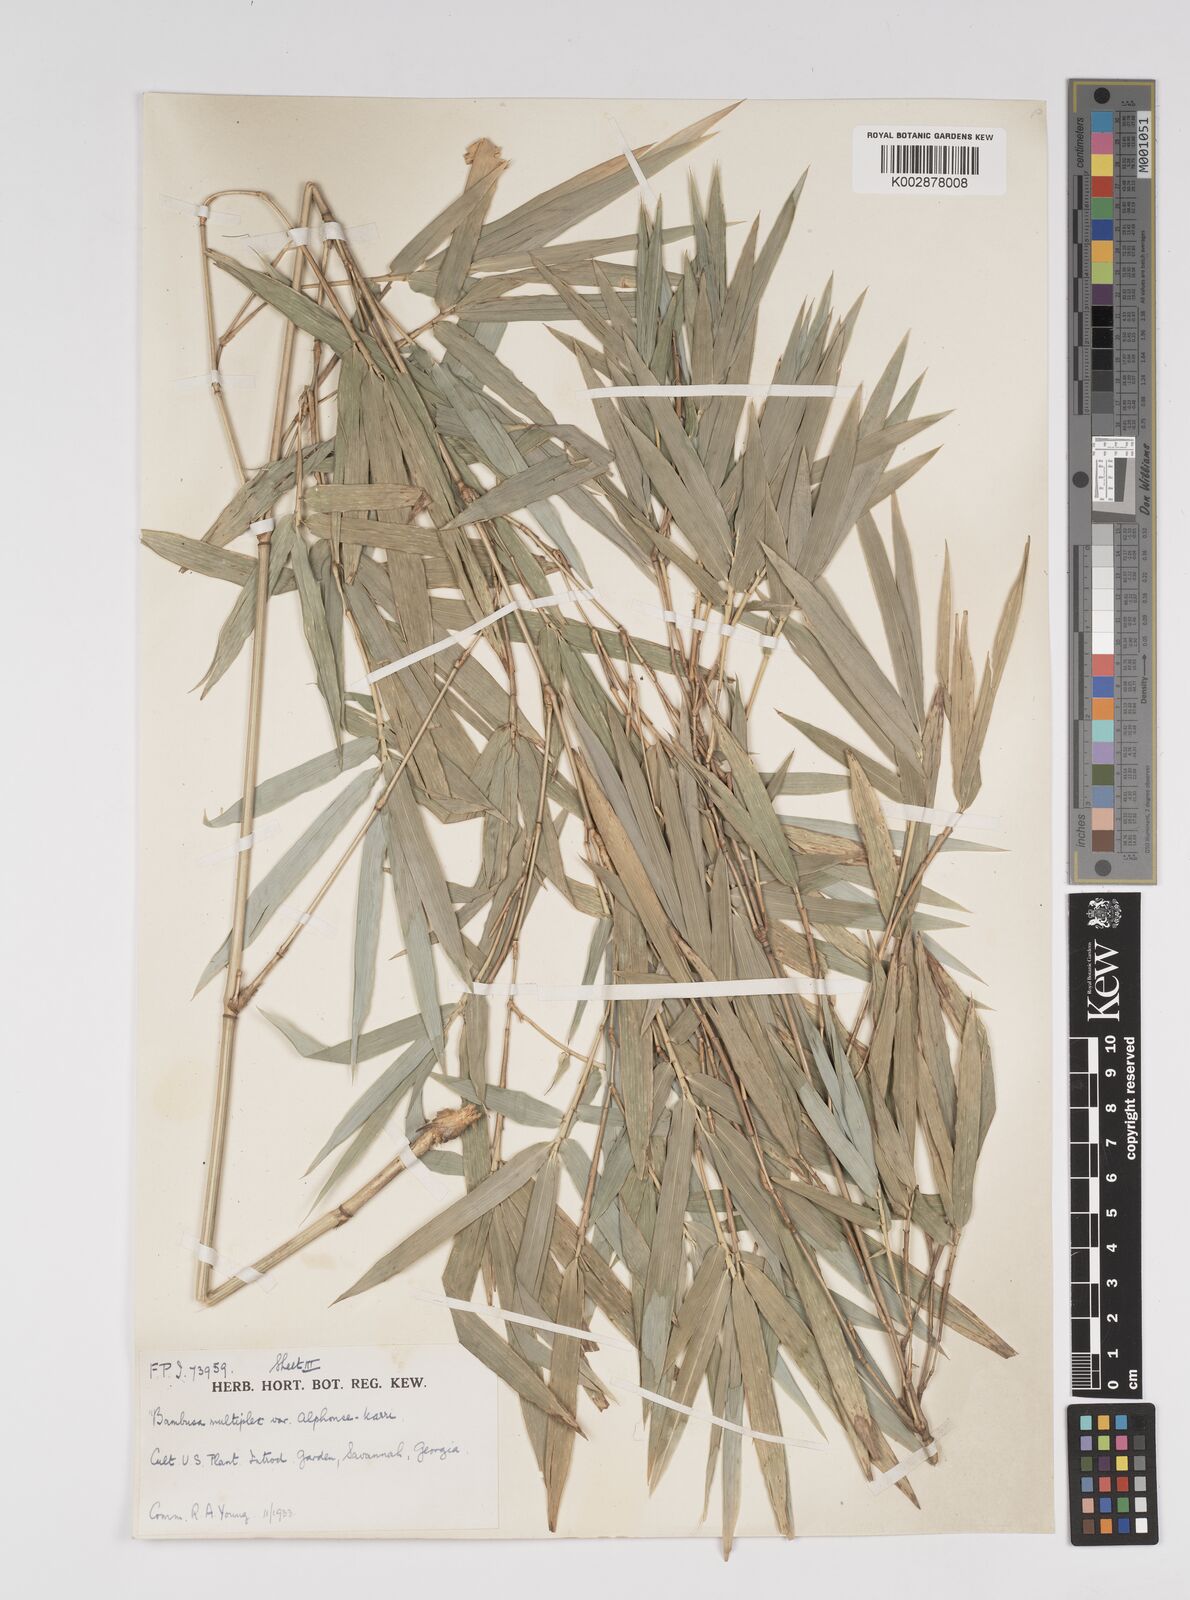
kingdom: Plantae
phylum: Tracheophyta
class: Liliopsida
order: Poales
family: Poaceae
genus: Bambusa
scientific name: Bambusa multiplex
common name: Hedge bamboo
